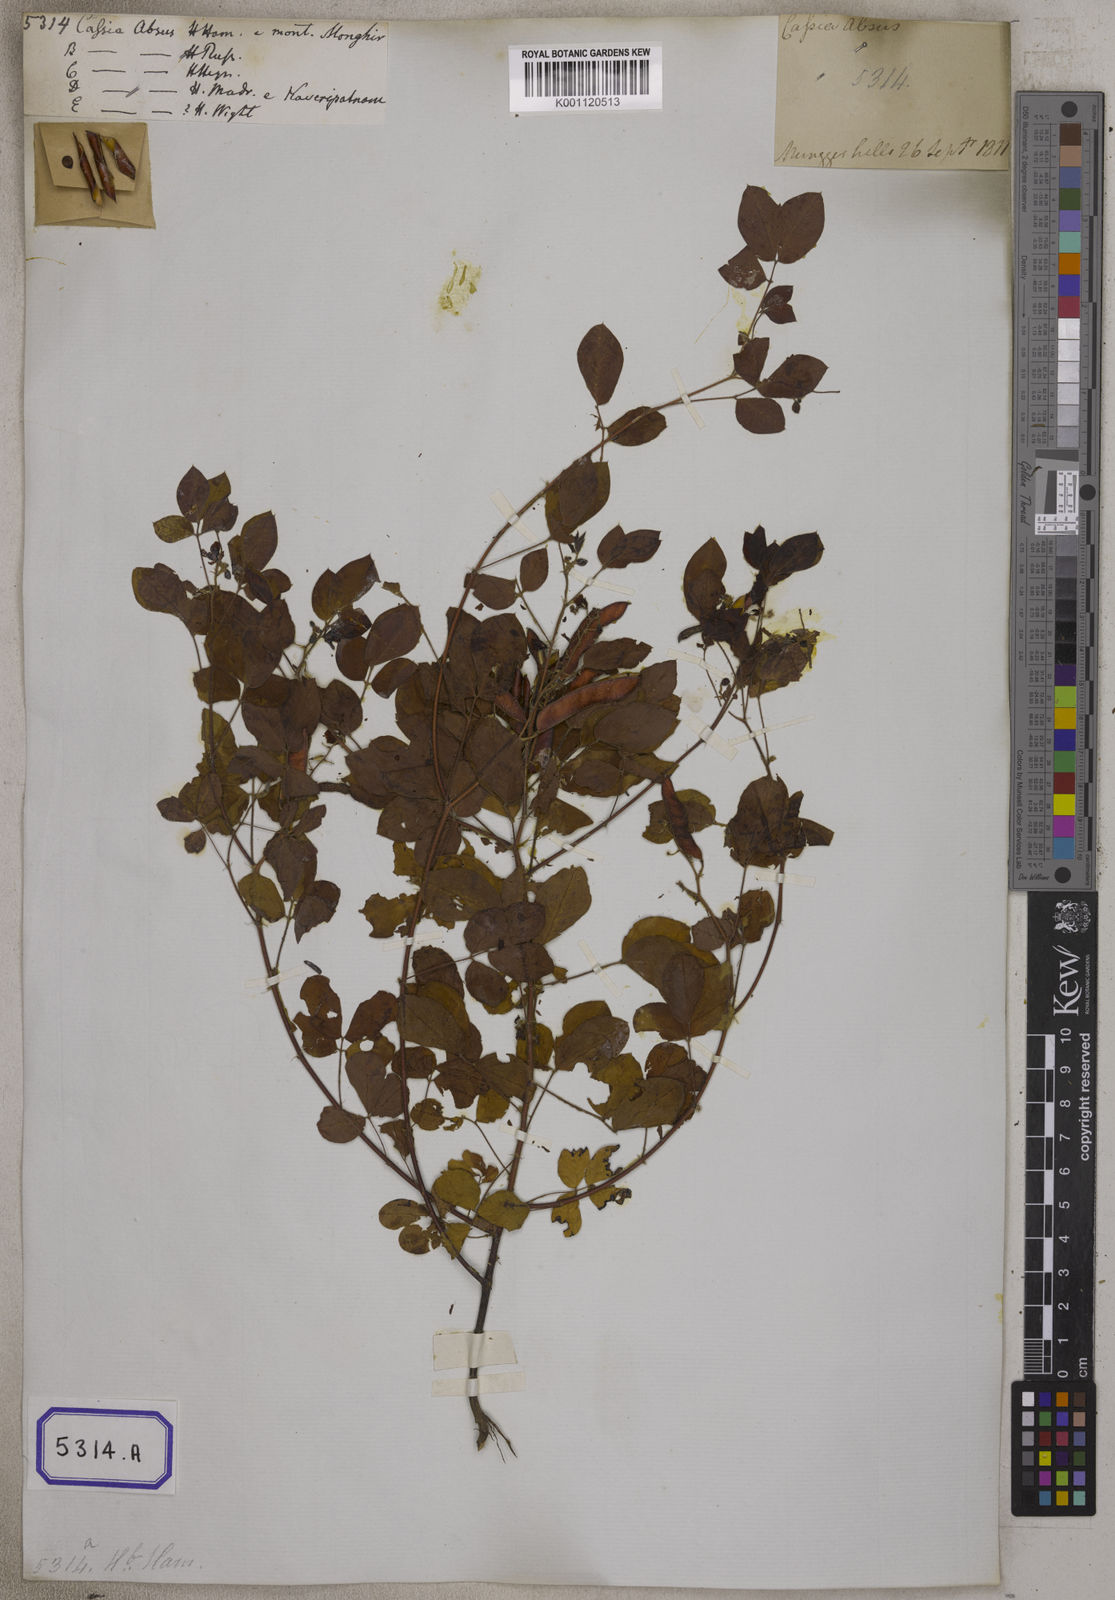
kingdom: Plantae
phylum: Tracheophyta
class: Magnoliopsida
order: Fabales
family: Fabaceae
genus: Chamaecrista
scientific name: Chamaecrista absus
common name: Tropical sensitive pea
